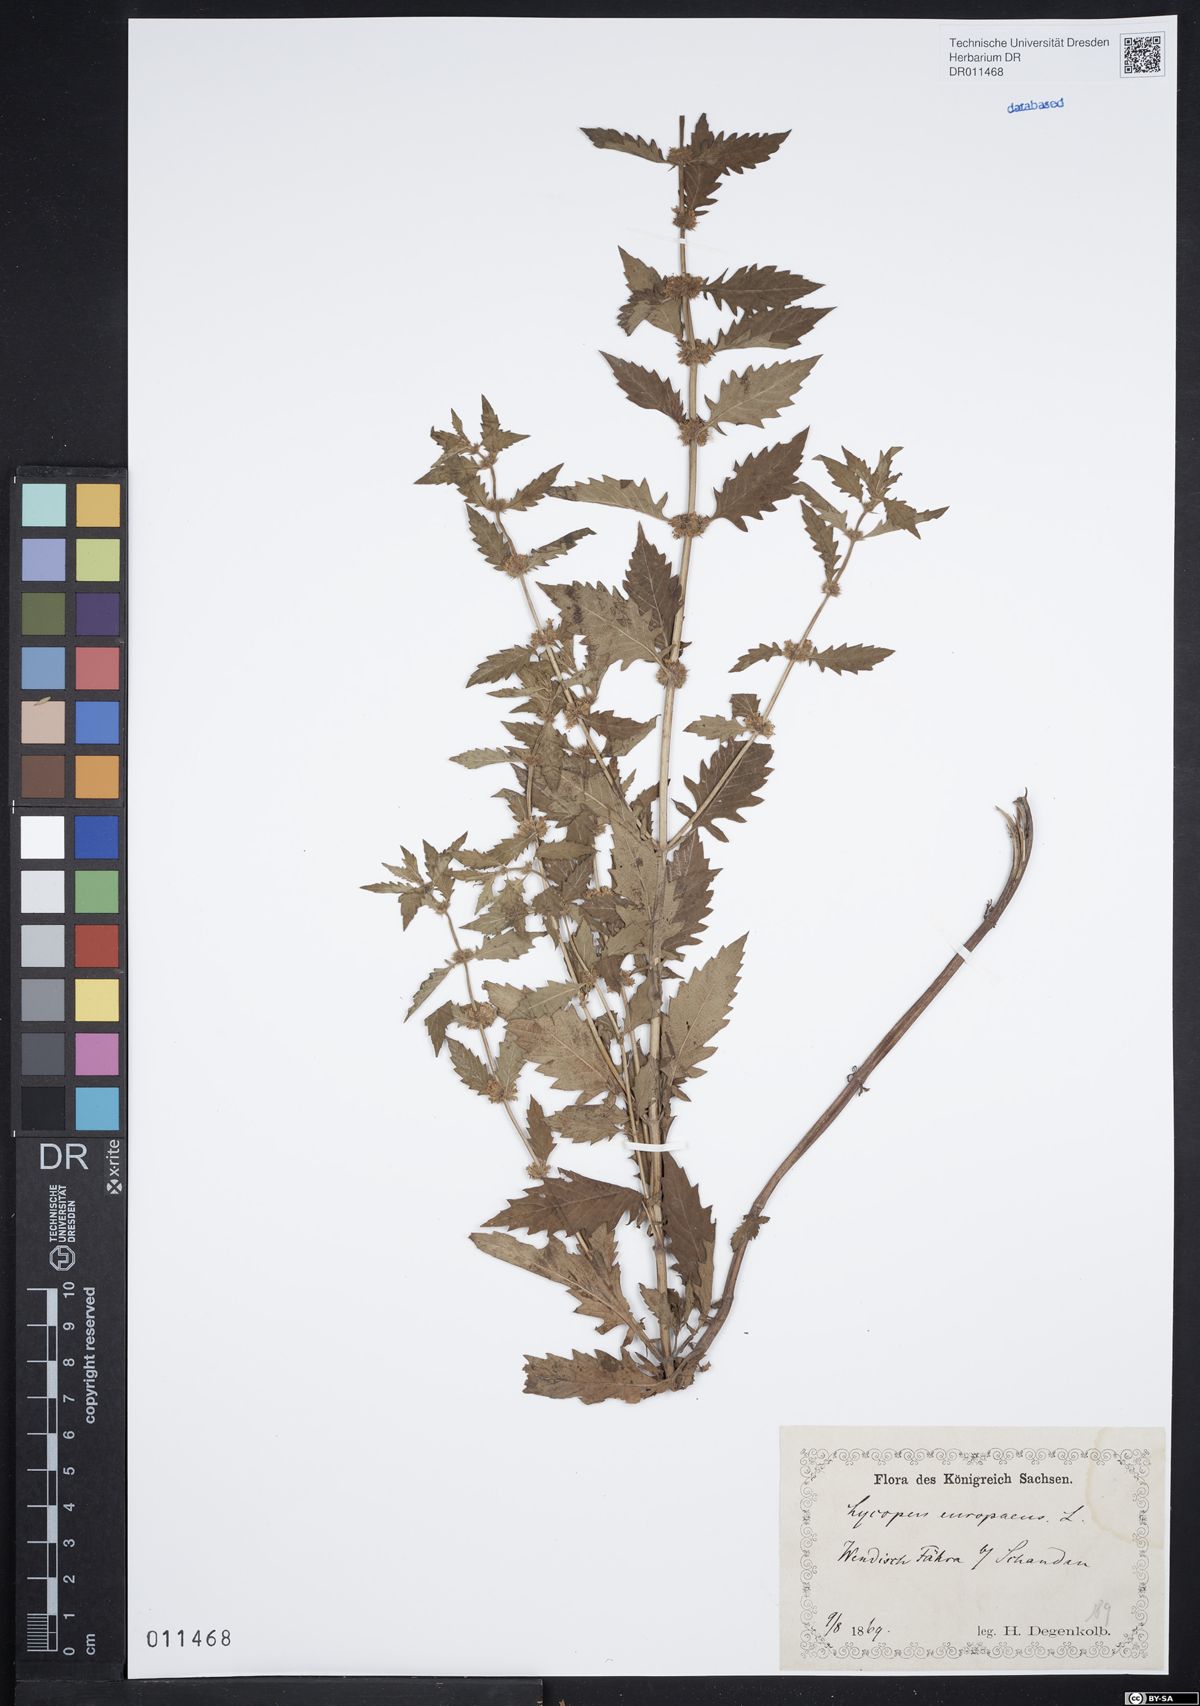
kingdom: Plantae
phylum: Tracheophyta
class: Magnoliopsida
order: Lamiales
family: Lamiaceae
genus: Lycopus
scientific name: Lycopus europaeus
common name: European bugleweed
